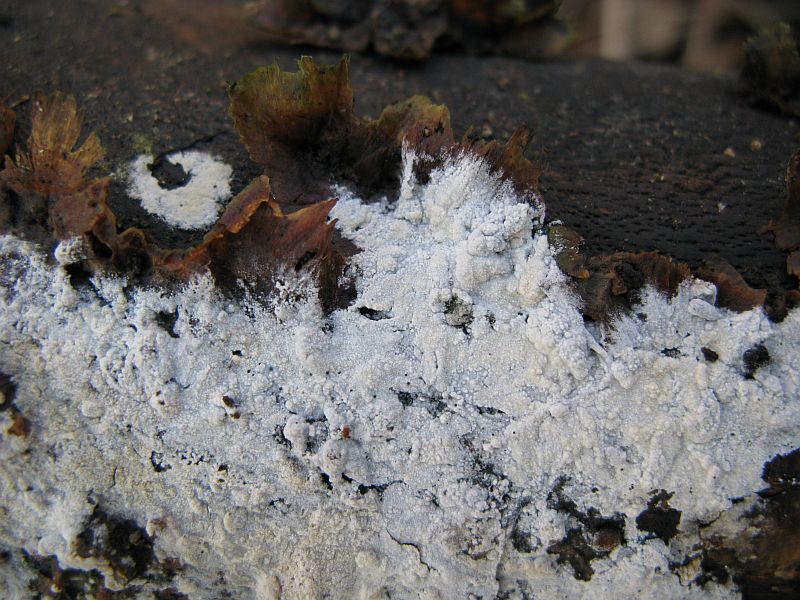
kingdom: Fungi
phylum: Basidiomycota
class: Agaricomycetes
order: Polyporales
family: Hyphodermataceae
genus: Hyphoderma
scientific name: Hyphoderma setigerum
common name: håret kalkskind
